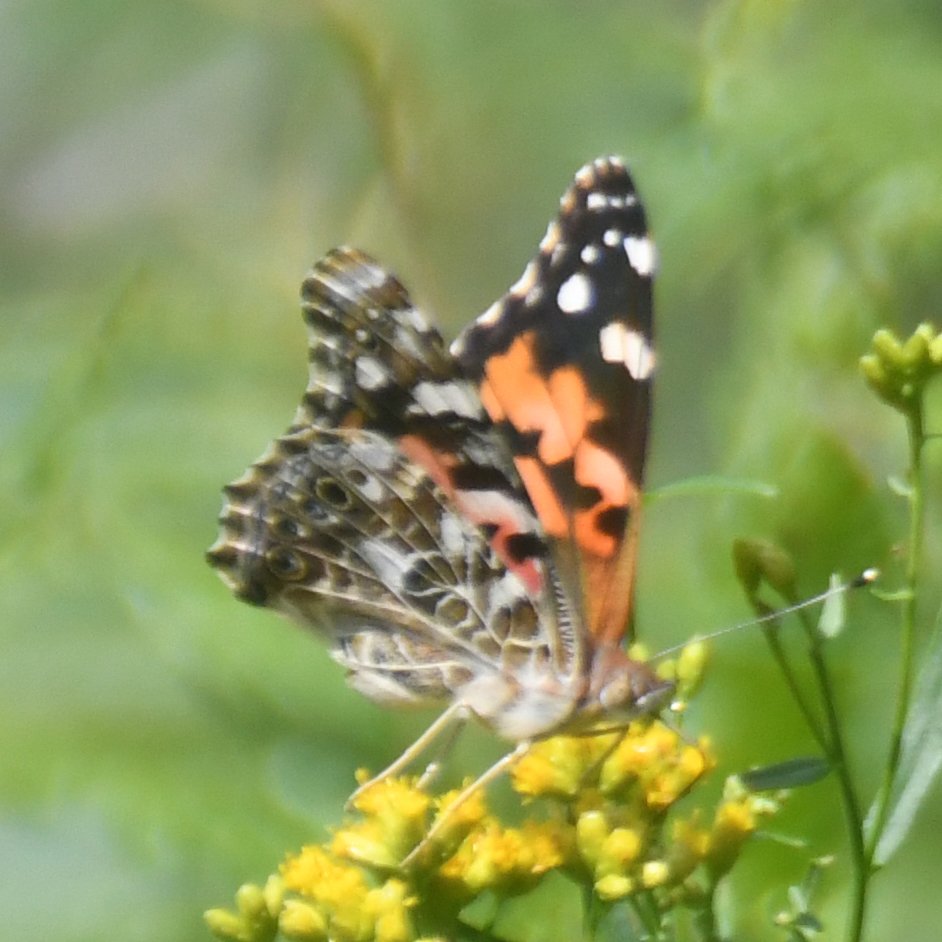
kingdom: Animalia
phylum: Arthropoda
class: Insecta
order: Lepidoptera
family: Nymphalidae
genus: Vanessa
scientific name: Vanessa cardui
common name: Painted Lady
